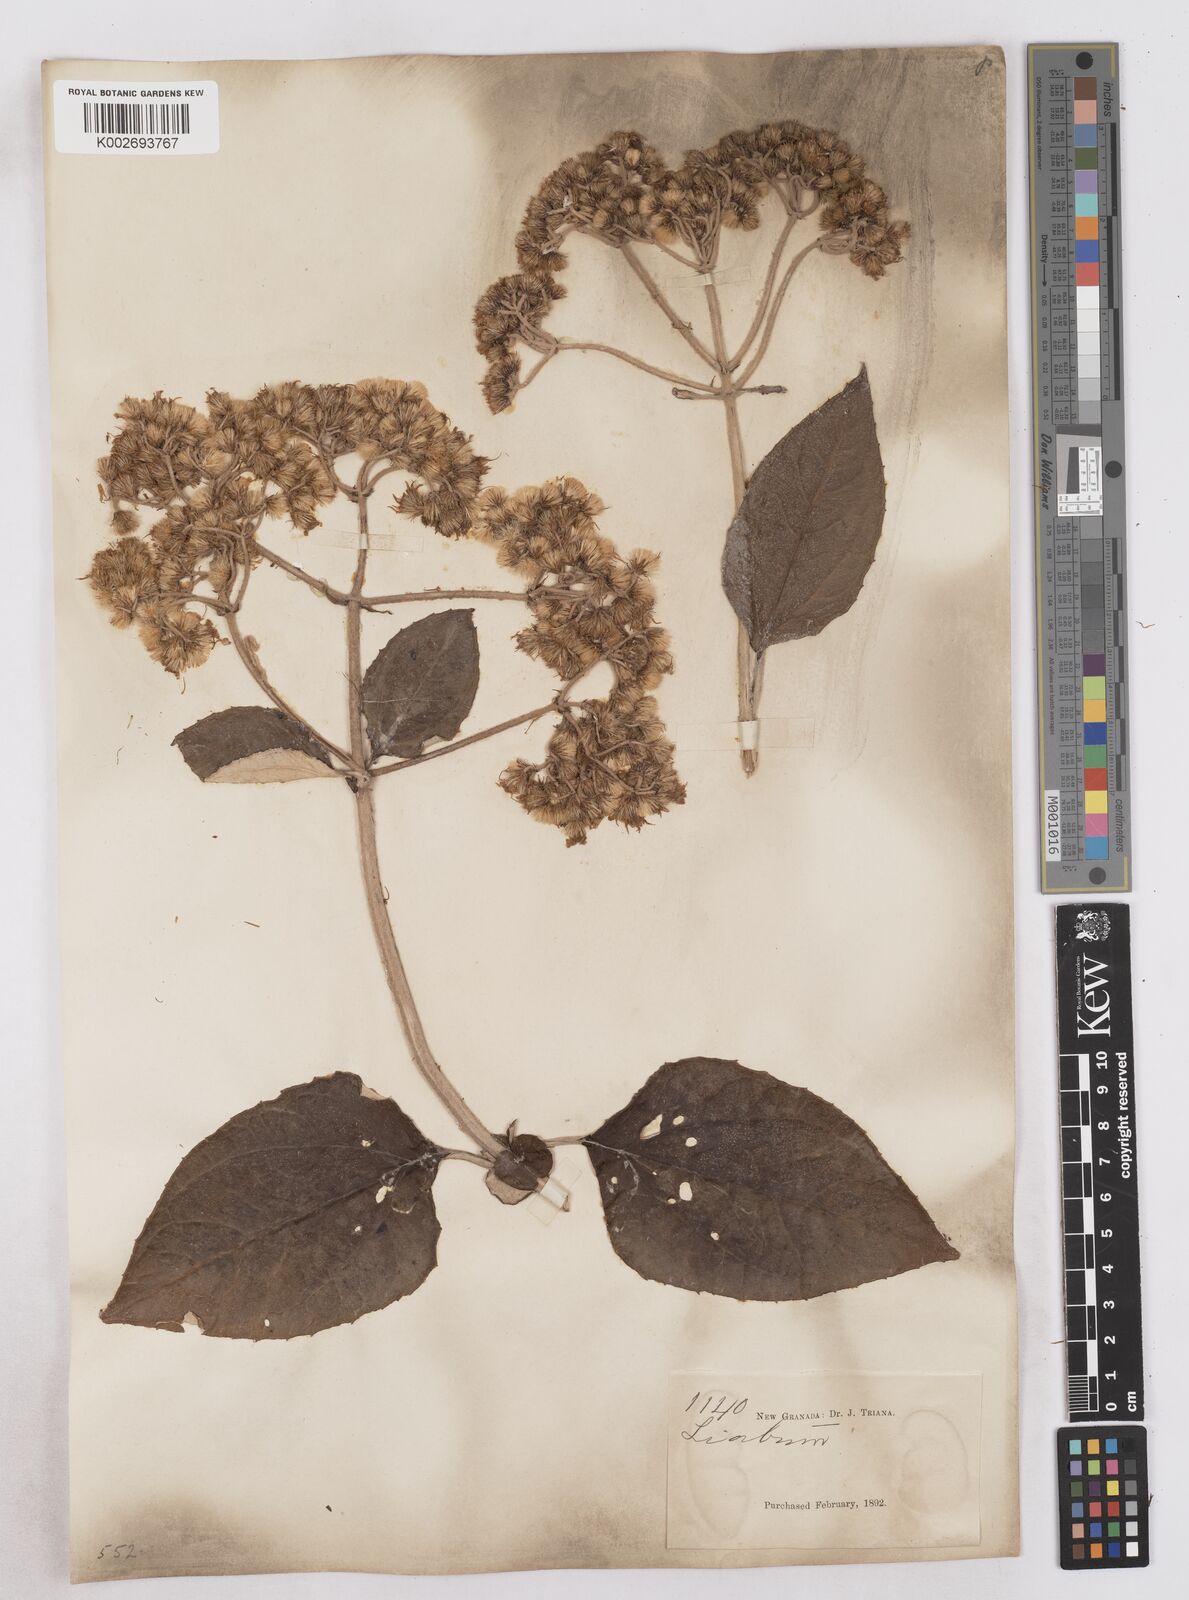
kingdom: Plantae
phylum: Tracheophyta
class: Magnoliopsida
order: Asterales
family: Asteraceae
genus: Platycarphella
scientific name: Platycarphella
